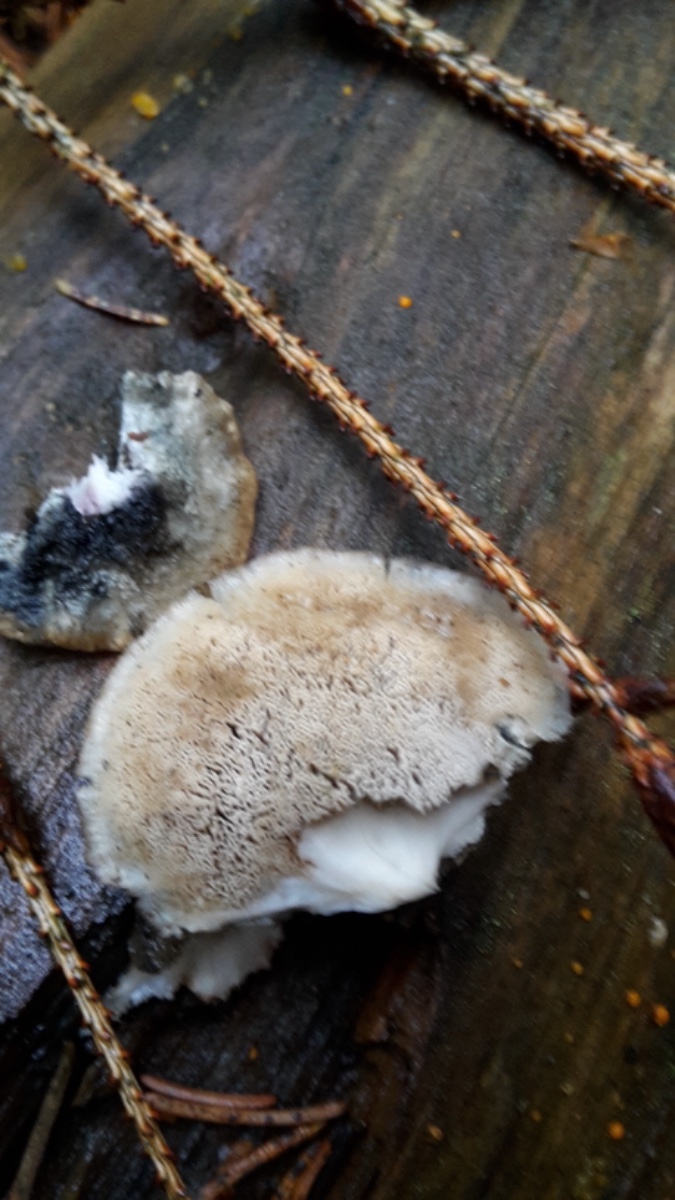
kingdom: Fungi
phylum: Basidiomycota
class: Agaricomycetes
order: Polyporales
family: Polyporaceae
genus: Cyanosporus
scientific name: Cyanosporus caesius
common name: blålig kødporesvamp
